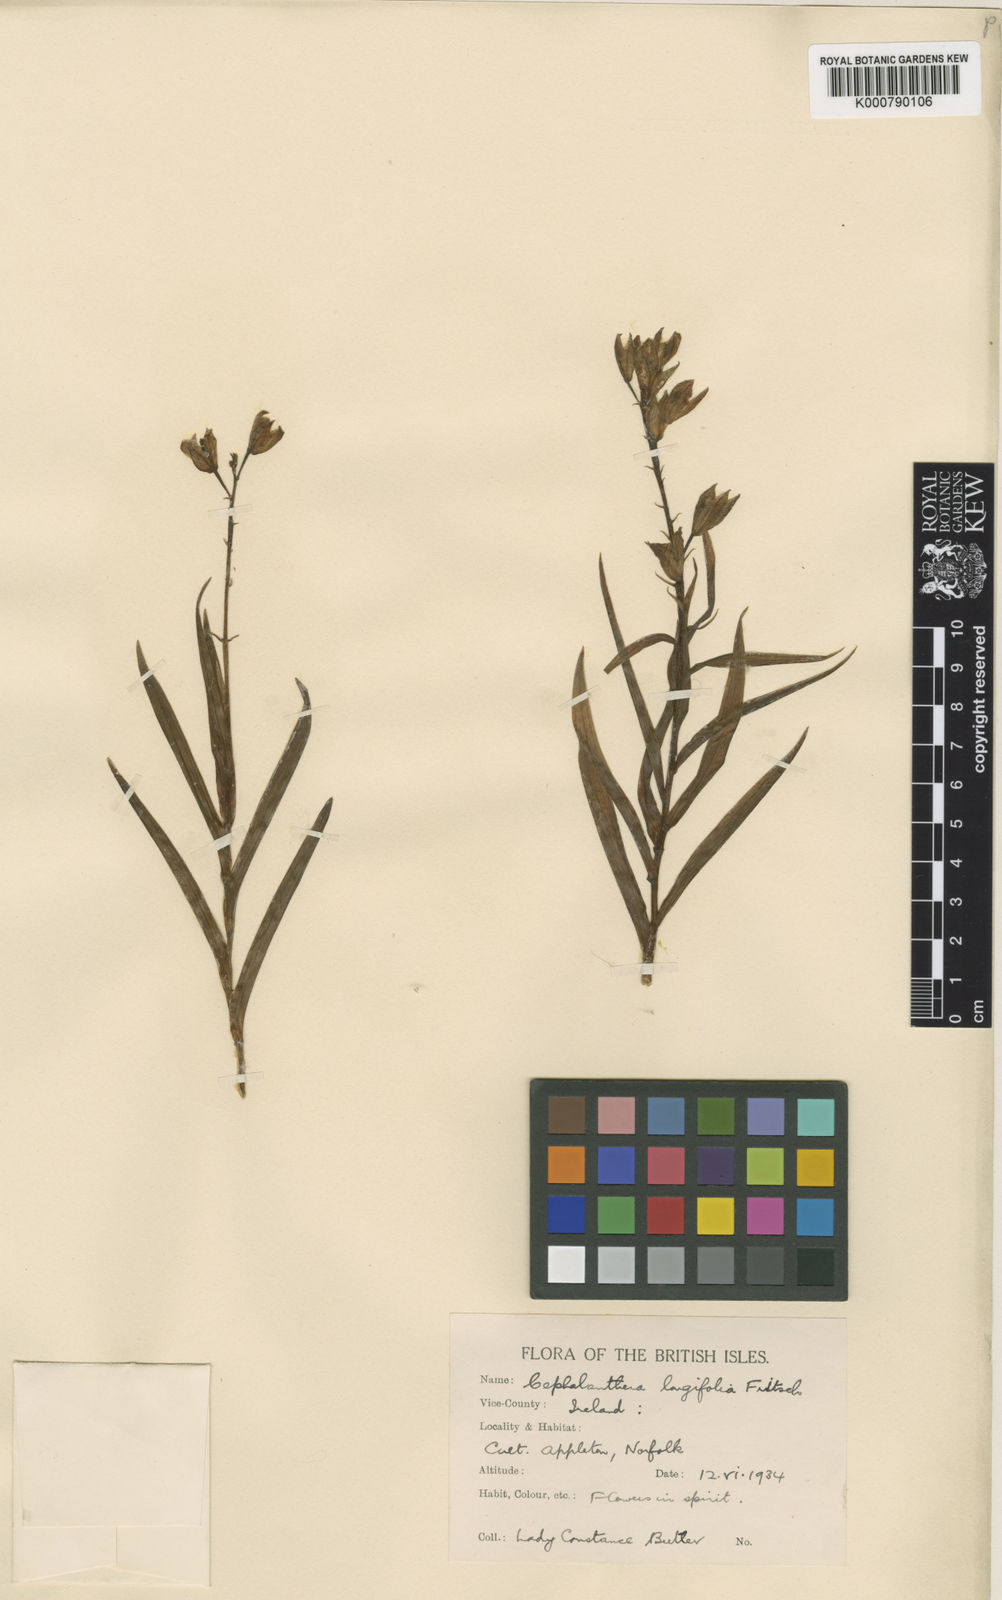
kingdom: Plantae
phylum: Tracheophyta
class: Liliopsida
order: Asparagales
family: Orchidaceae
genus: Cephalanthera
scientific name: Cephalanthera longifolia
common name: Narrow-leaved helleborine
